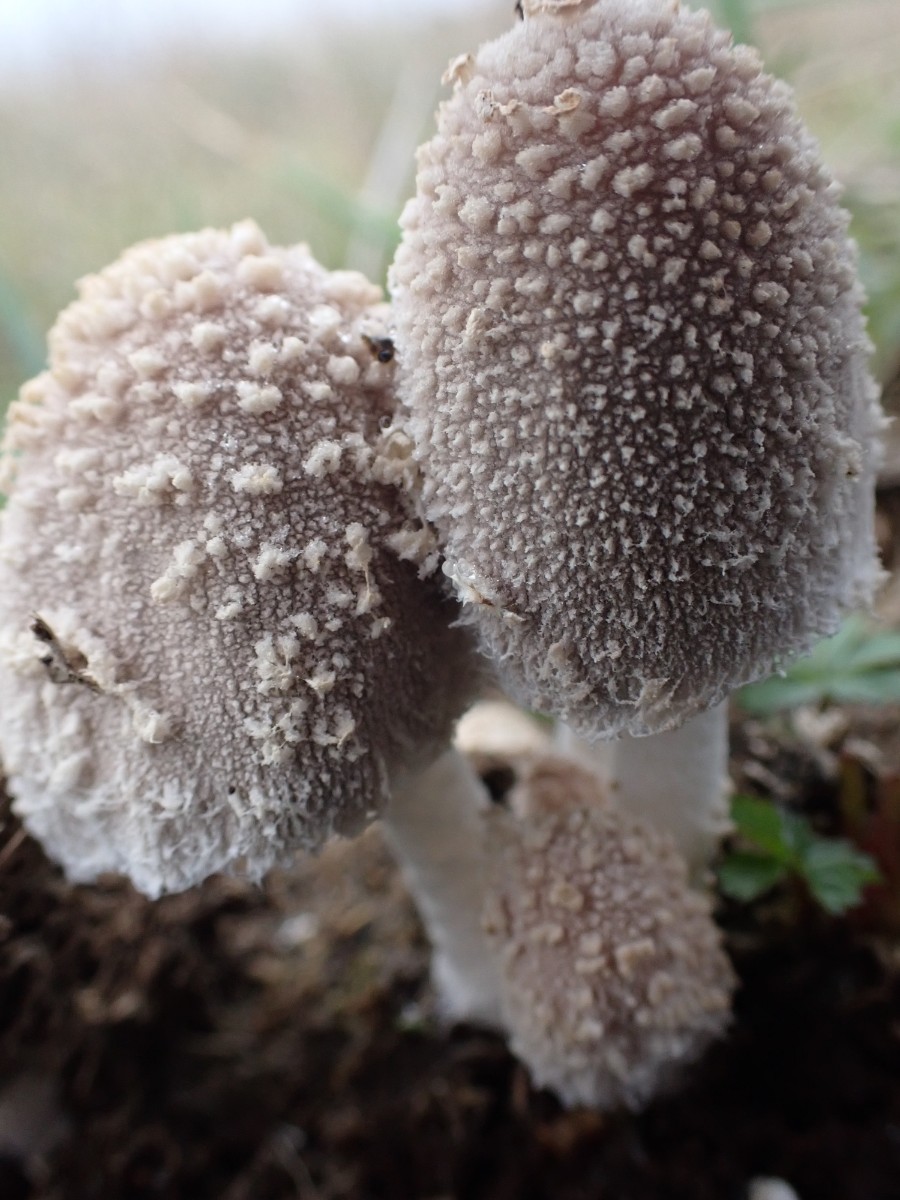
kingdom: Fungi
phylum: Basidiomycota
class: Agaricomycetes
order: Agaricales
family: Psathyrellaceae
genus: Coprinopsis
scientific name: Coprinopsis
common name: blækhat
